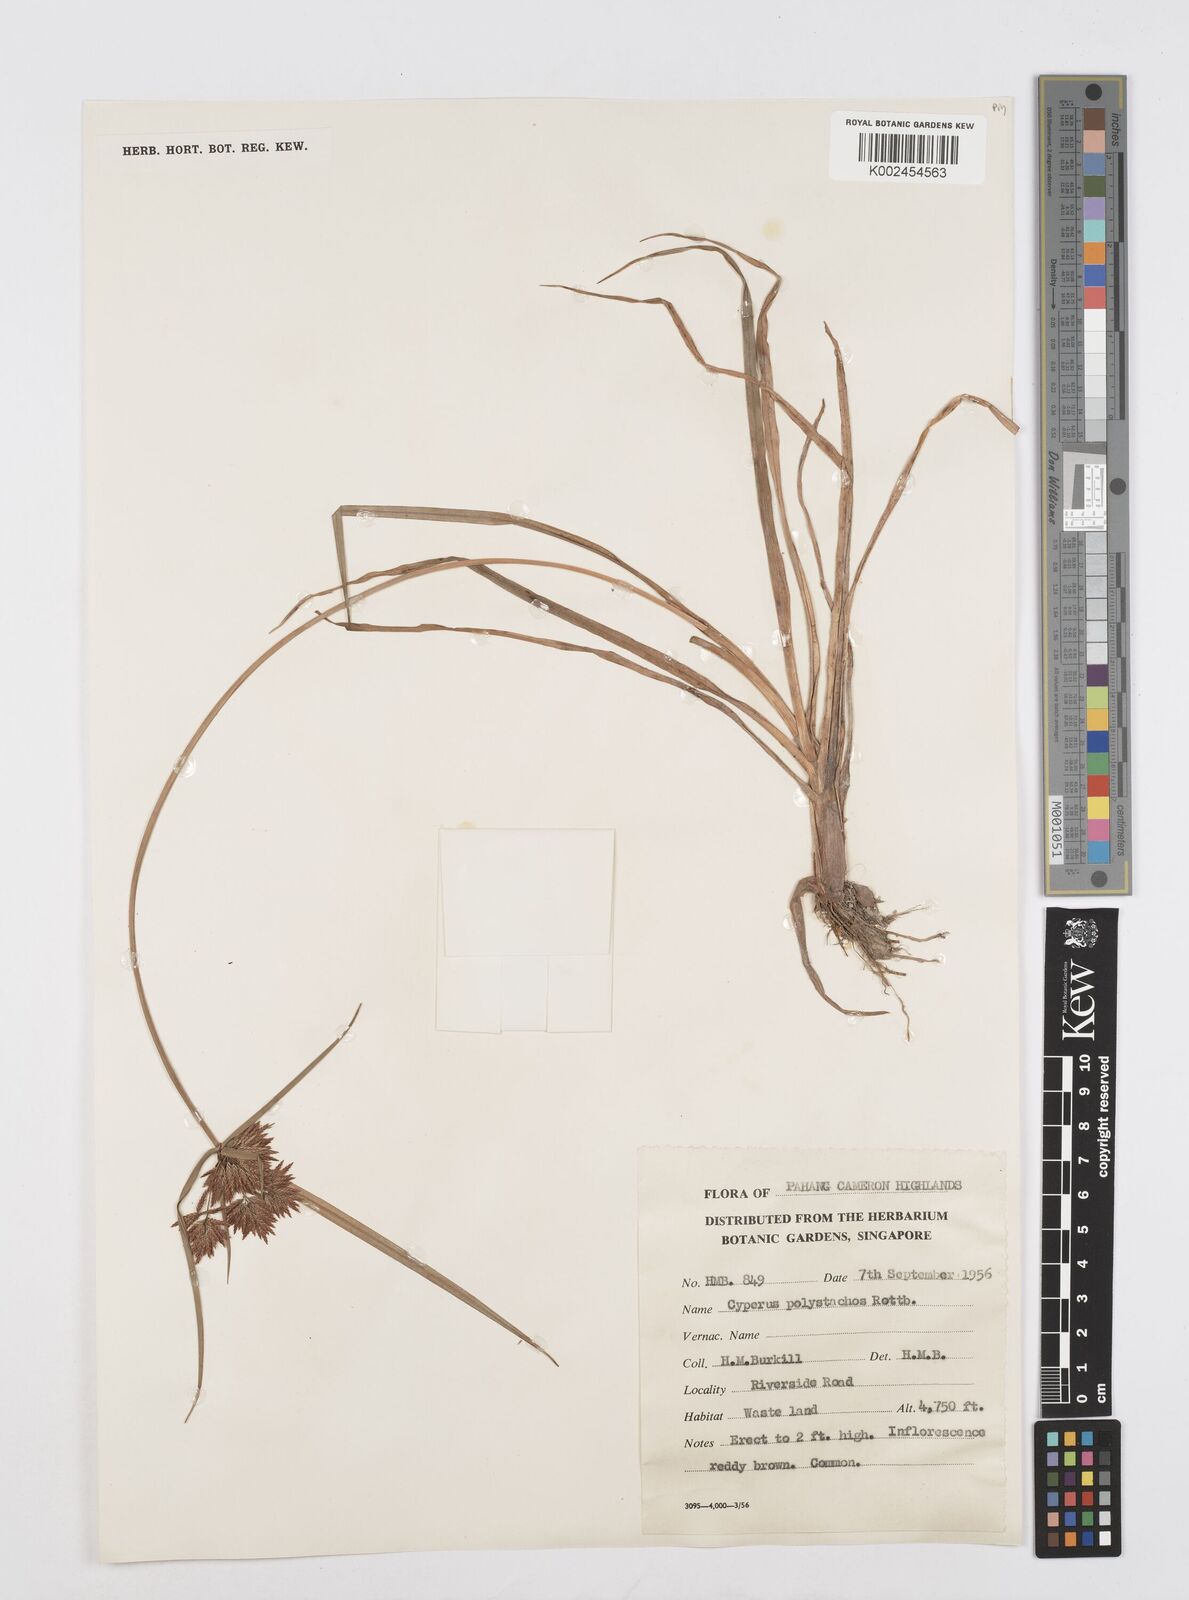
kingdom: Plantae
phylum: Tracheophyta
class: Liliopsida
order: Poales
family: Cyperaceae
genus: Cyperus
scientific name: Cyperus polystachyos
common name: Bunchy flat sedge
